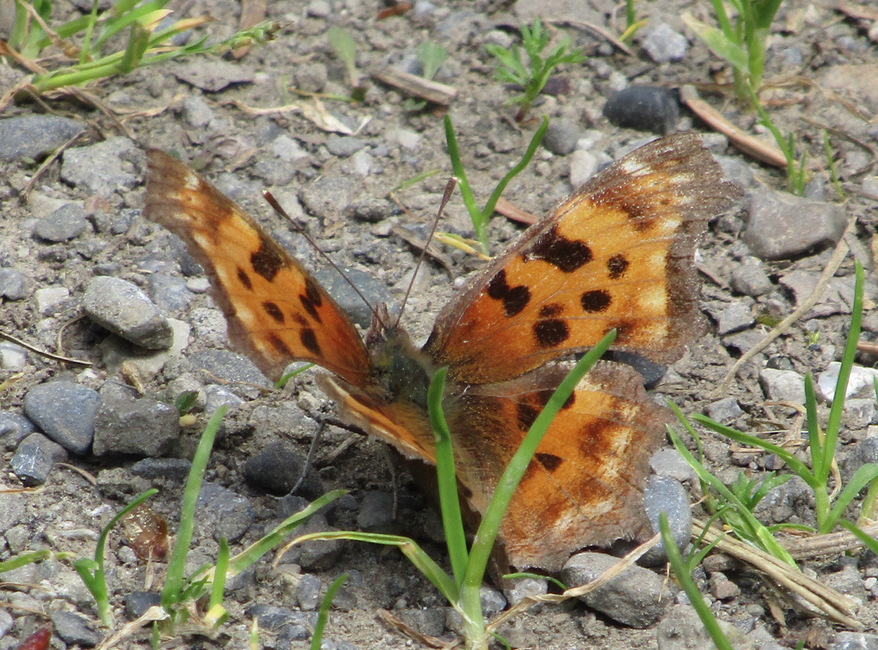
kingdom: Animalia
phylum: Arthropoda
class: Insecta
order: Lepidoptera
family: Nymphalidae
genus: Polygonia
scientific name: Polygonia faunus
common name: Green Comma
